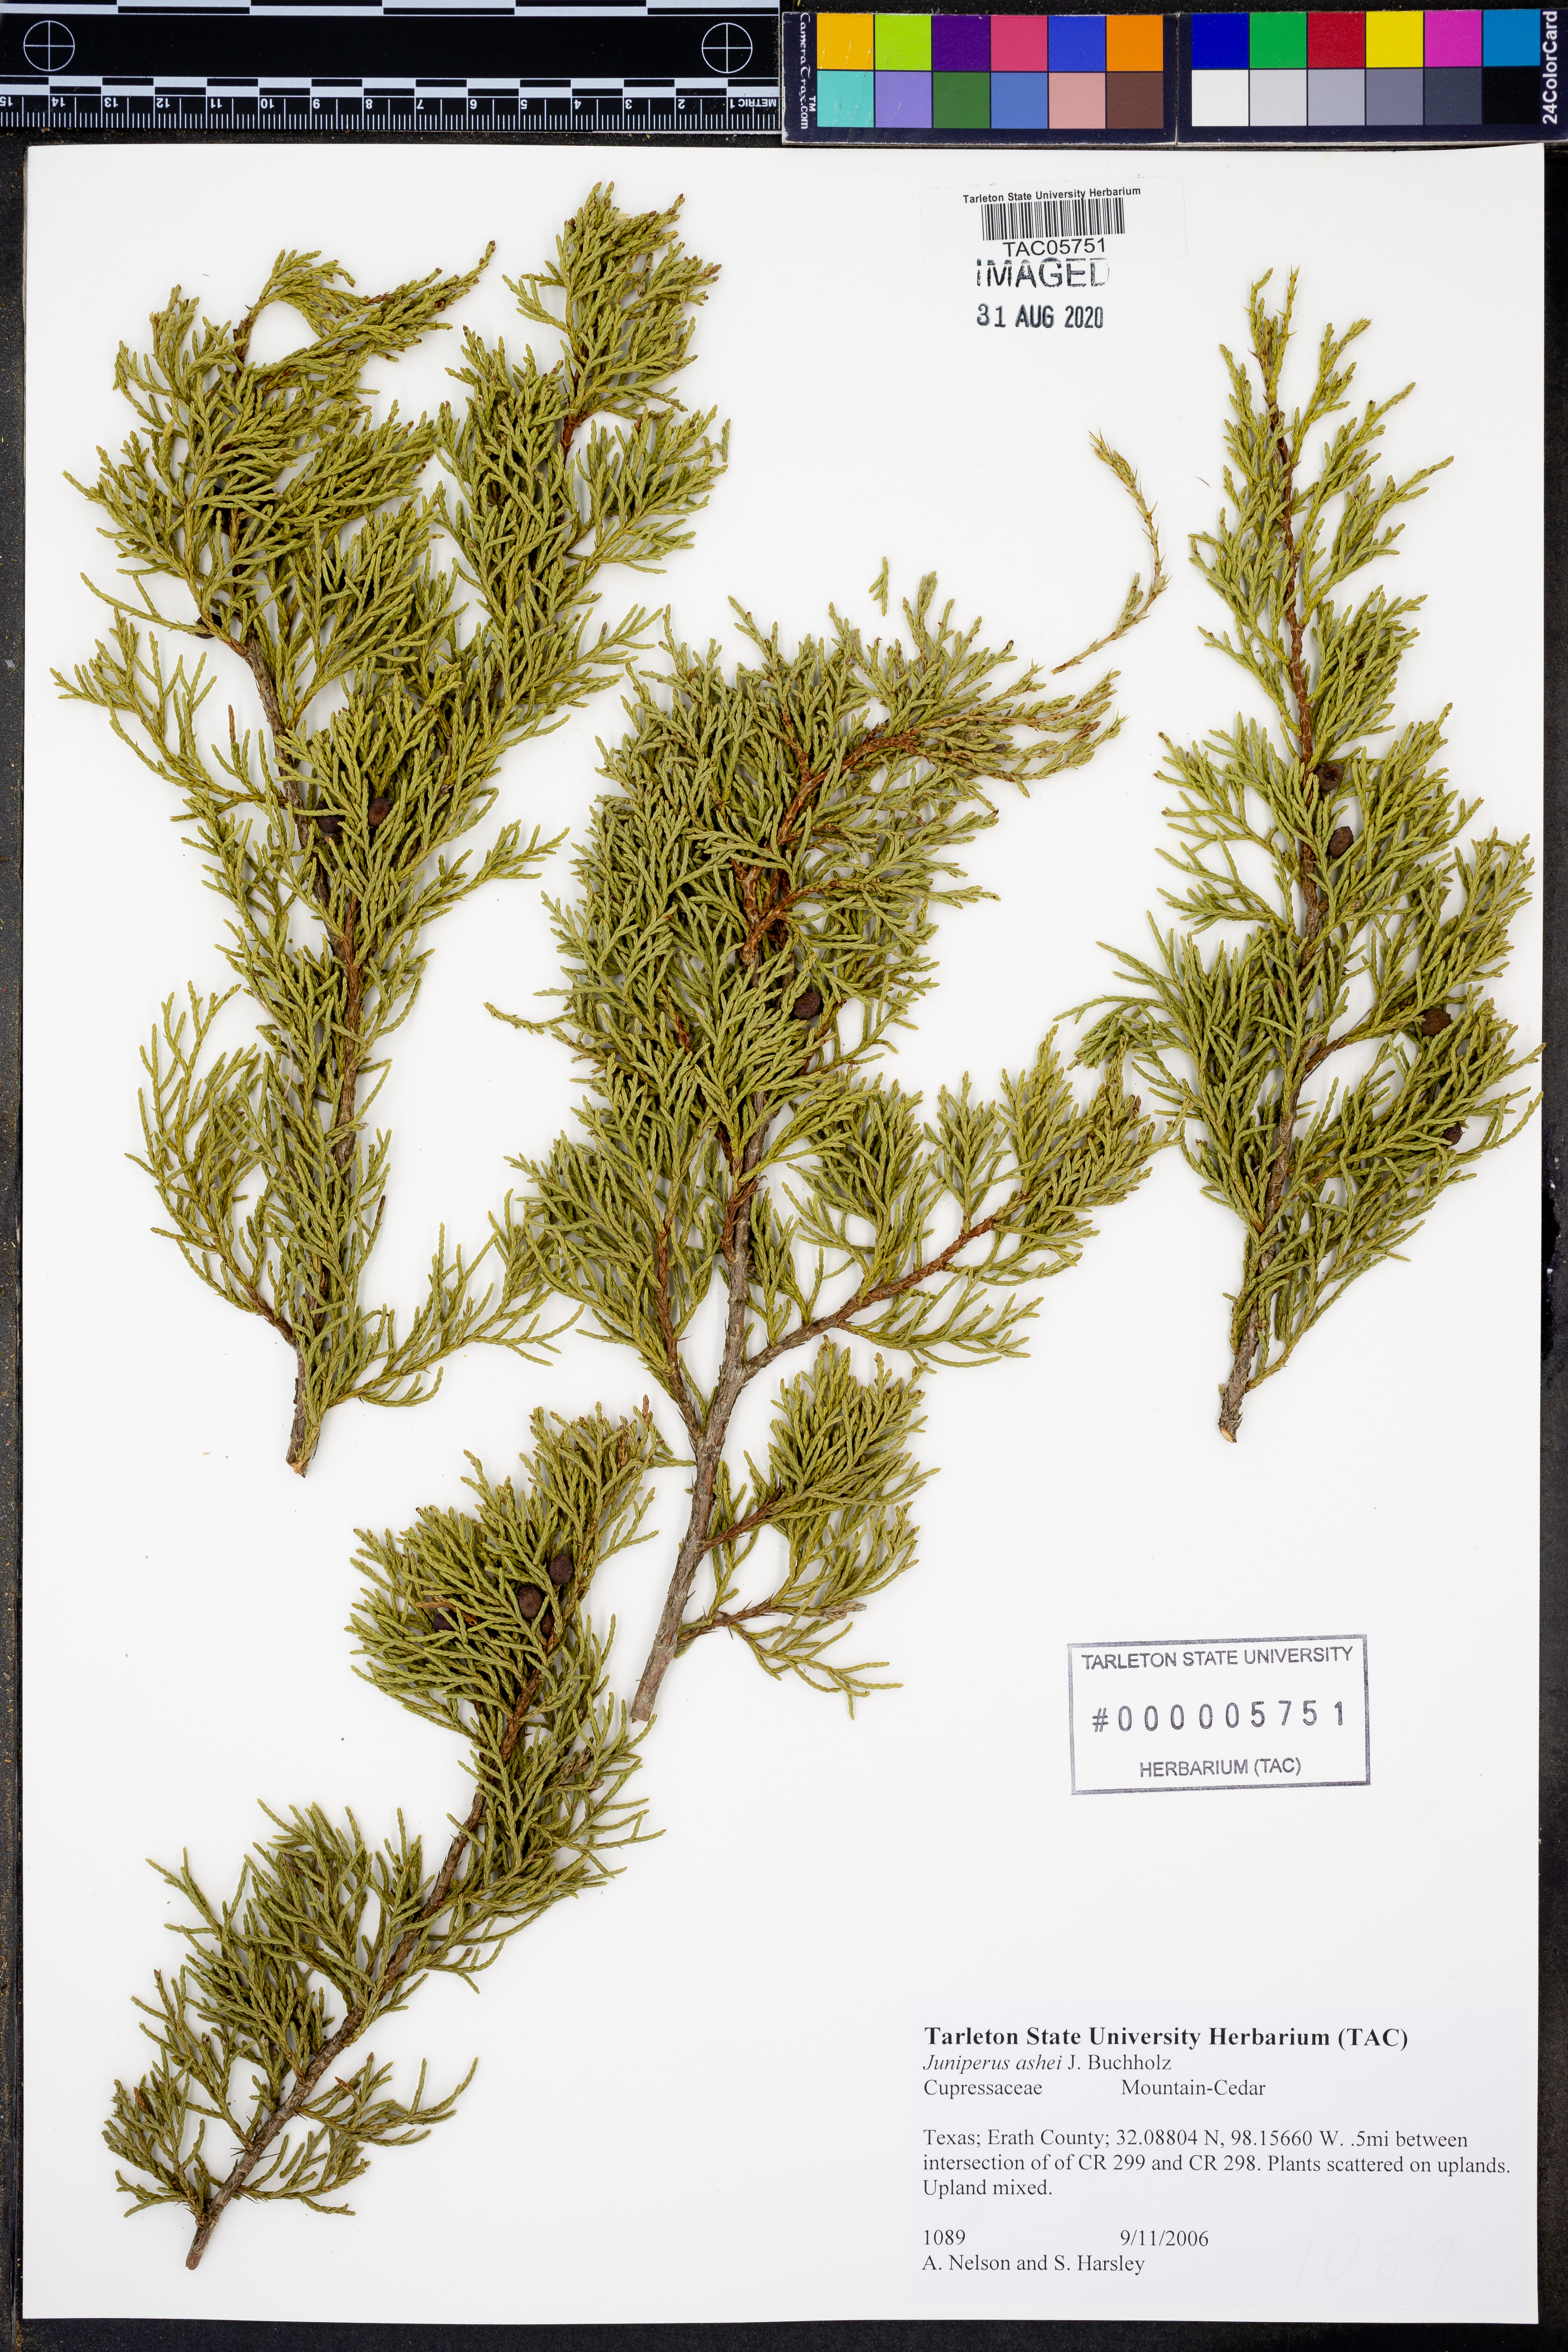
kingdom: Plantae
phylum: Tracheophyta
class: Pinopsida
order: Pinales
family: Cupressaceae
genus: Juniperus
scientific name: Juniperus ashei
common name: Mexican juniper
